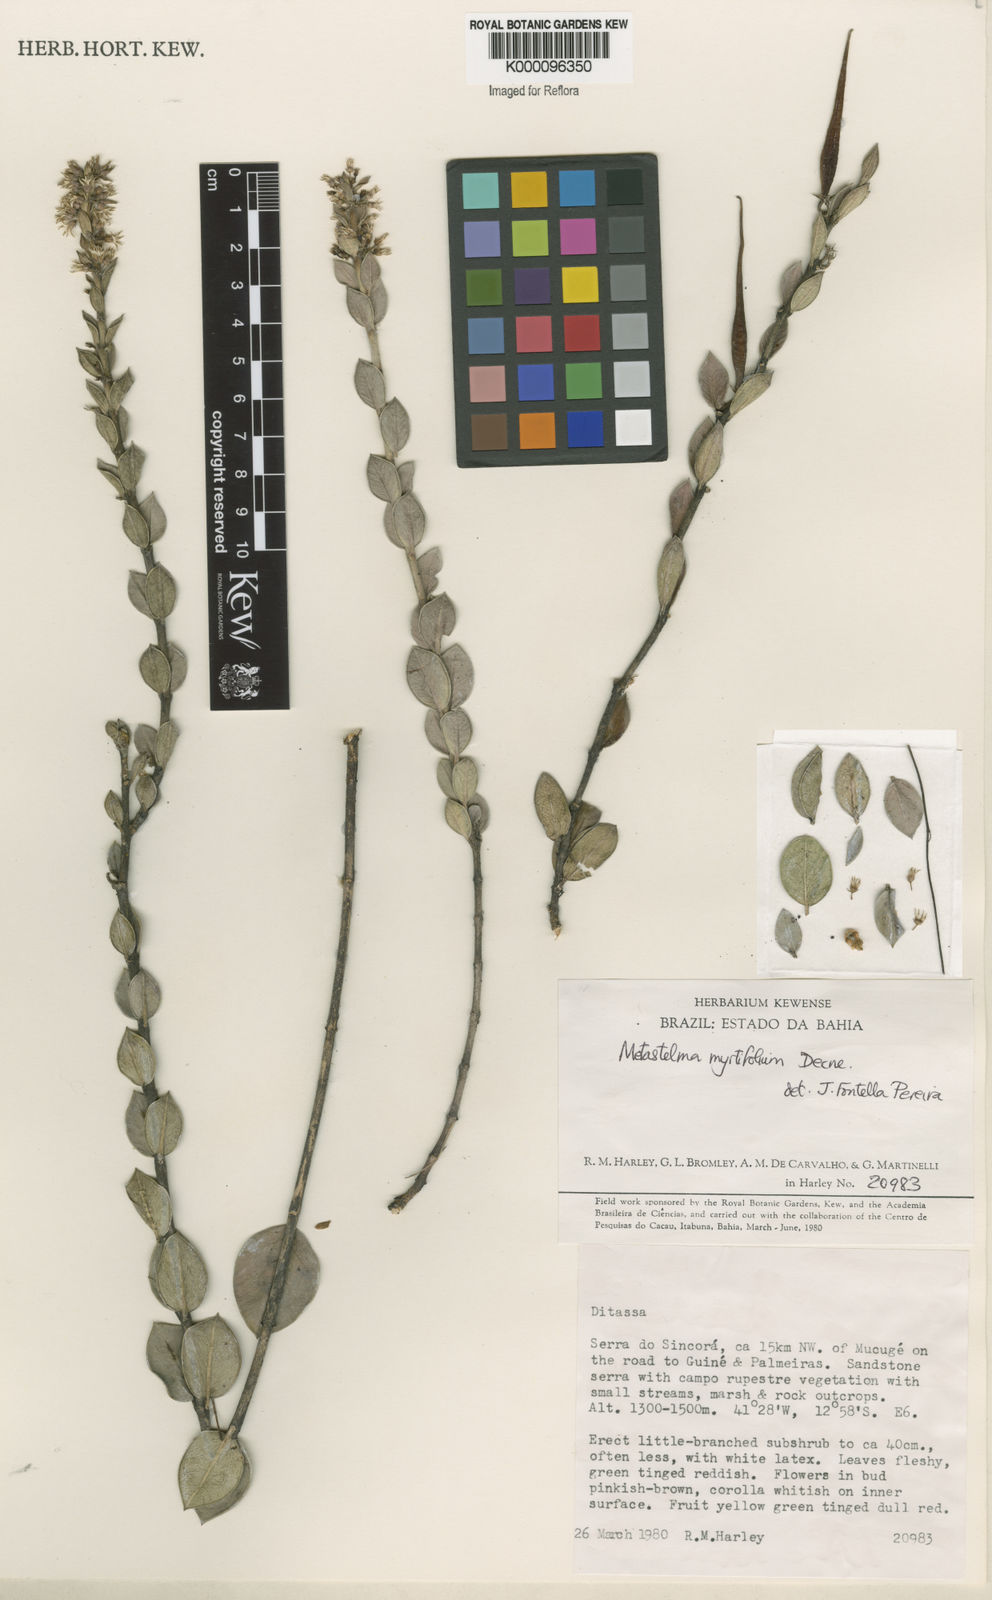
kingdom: Plantae
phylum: Tracheophyta
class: Magnoliopsida
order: Gentianales
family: Apocynaceae
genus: Metastelma
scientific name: Metastelma myrtifolium
